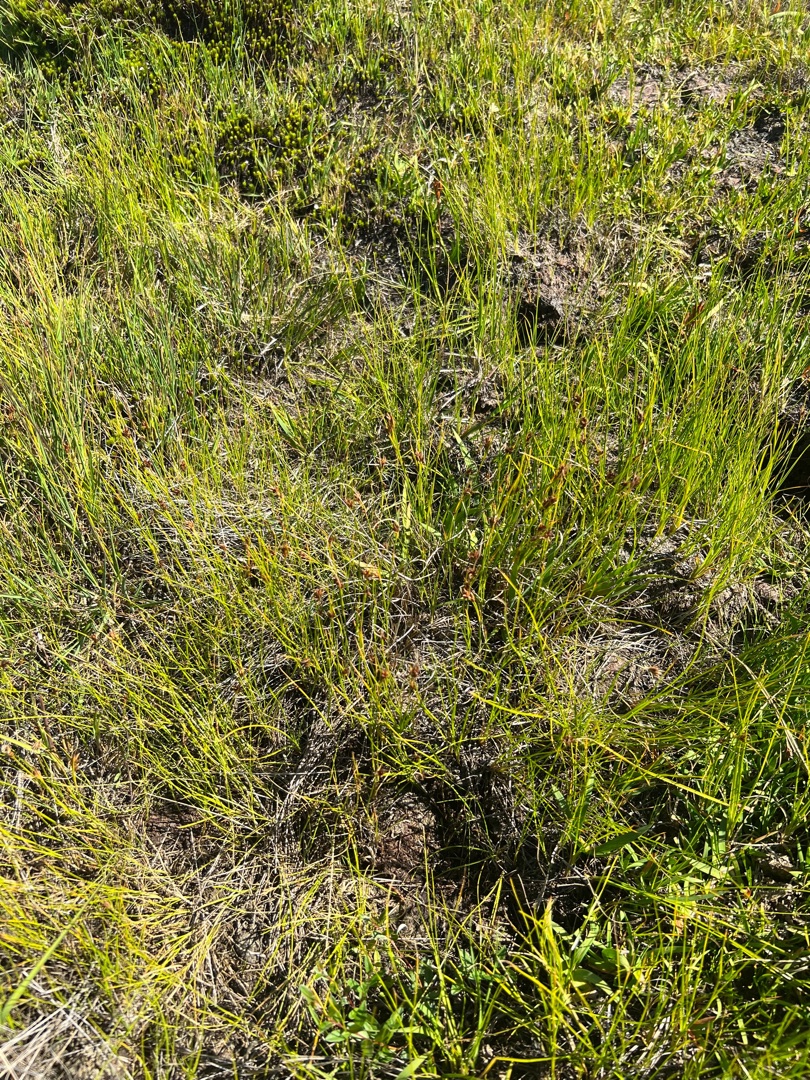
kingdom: Plantae
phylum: Tracheophyta
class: Liliopsida
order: Poales
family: Cyperaceae
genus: Rhynchospora
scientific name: Rhynchospora fusca
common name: Brun næbfrø
